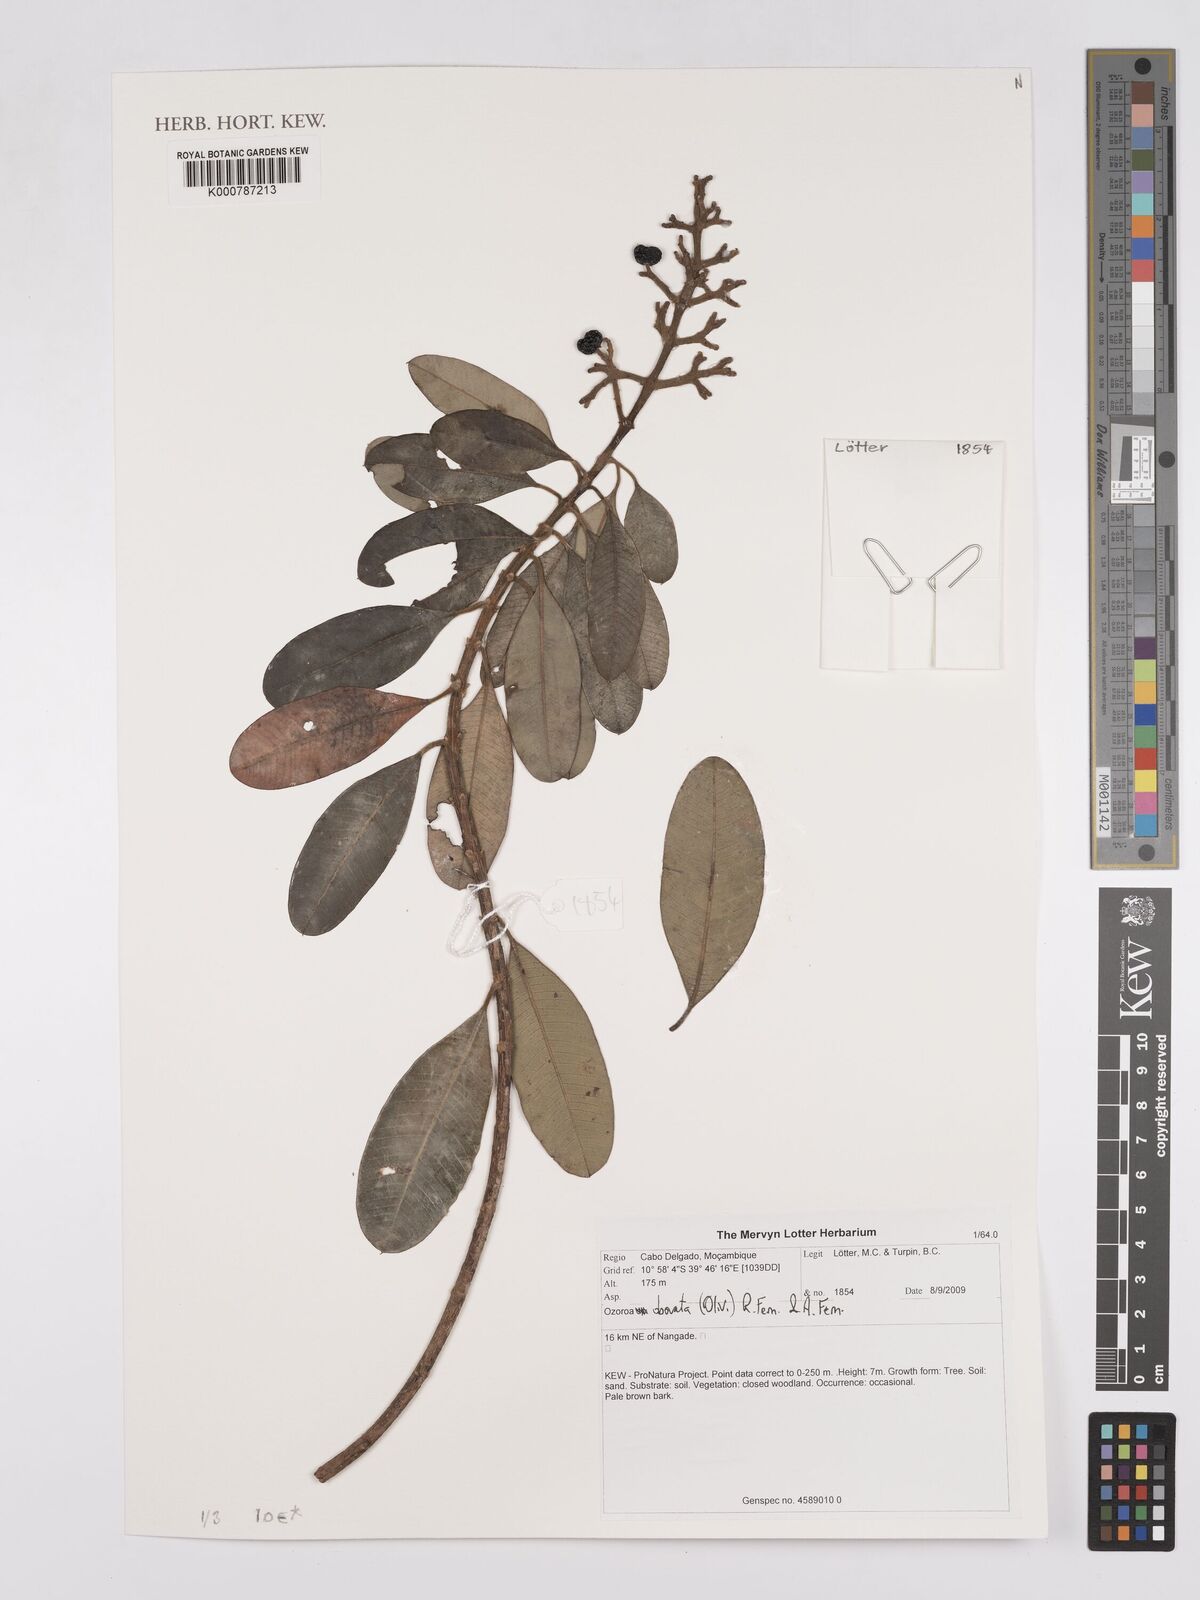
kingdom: Plantae
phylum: Tracheophyta
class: Magnoliopsida
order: Sapindales
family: Anacardiaceae
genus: Ozoroa
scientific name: Ozoroa obovata
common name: Broad-leaved resin tree
